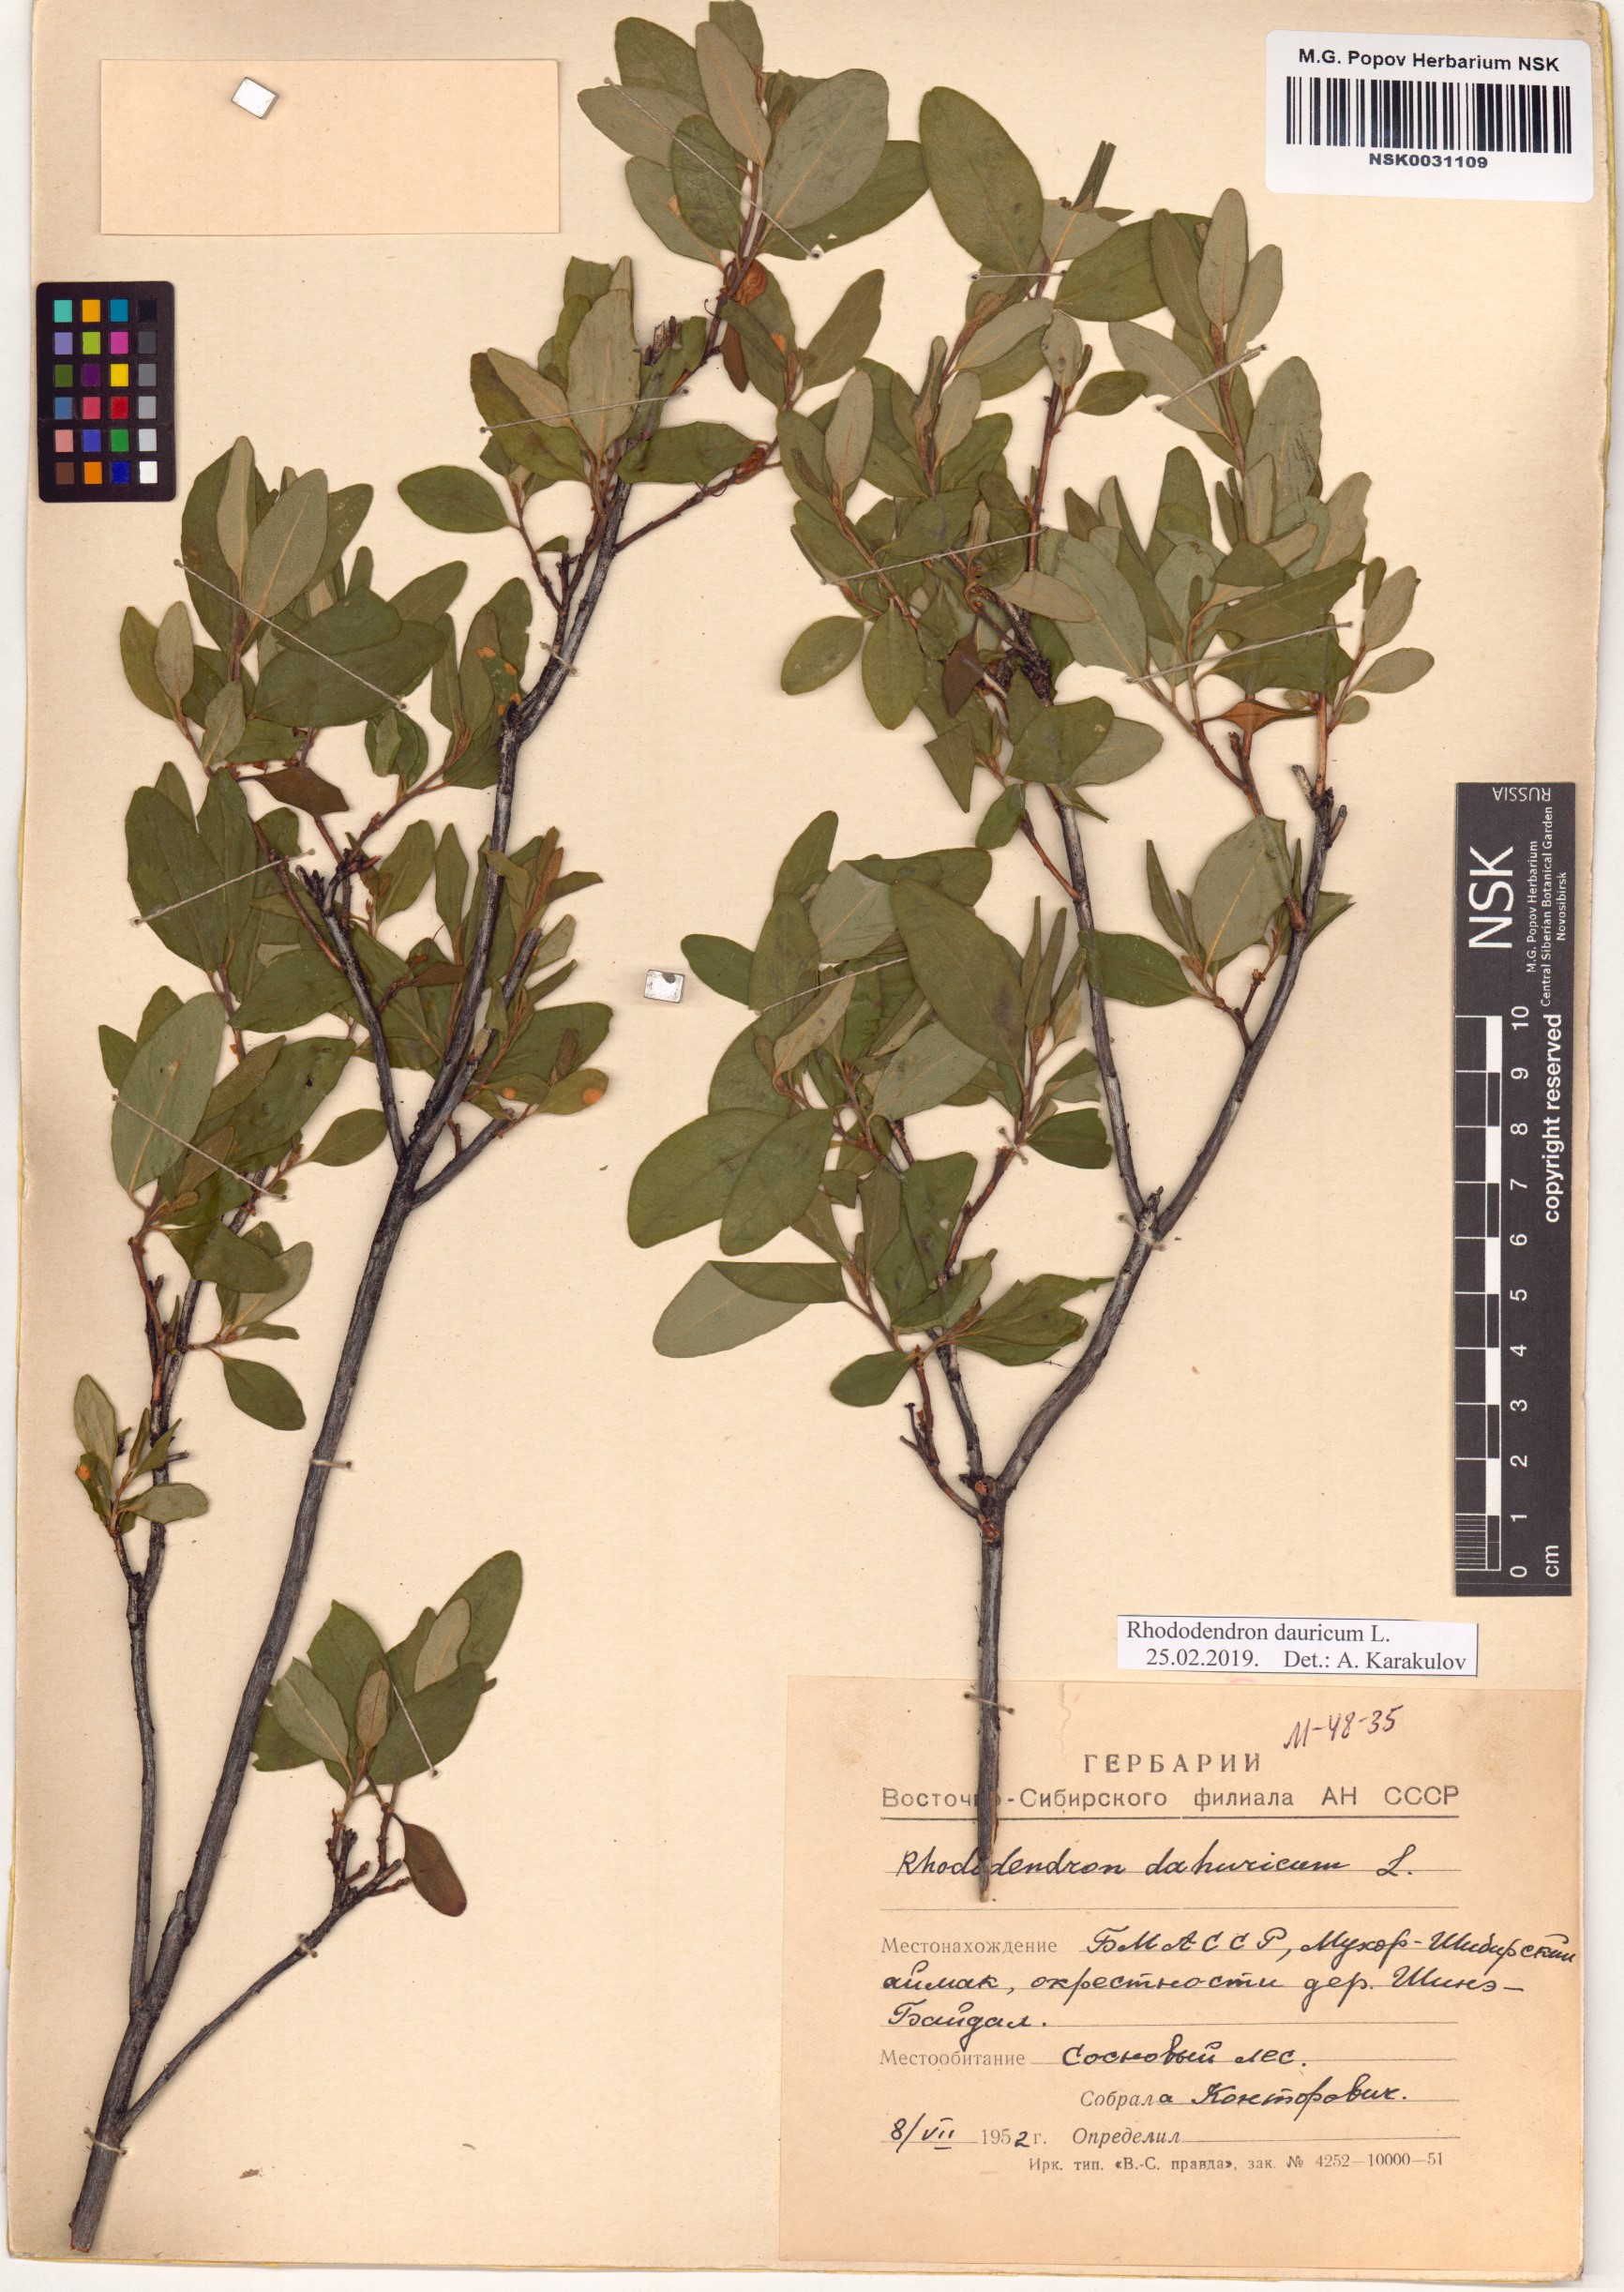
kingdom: Plantae
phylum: Tracheophyta
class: Magnoliopsida
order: Ericales
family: Ericaceae
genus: Rhododendron
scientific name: Rhododendron dauricum
